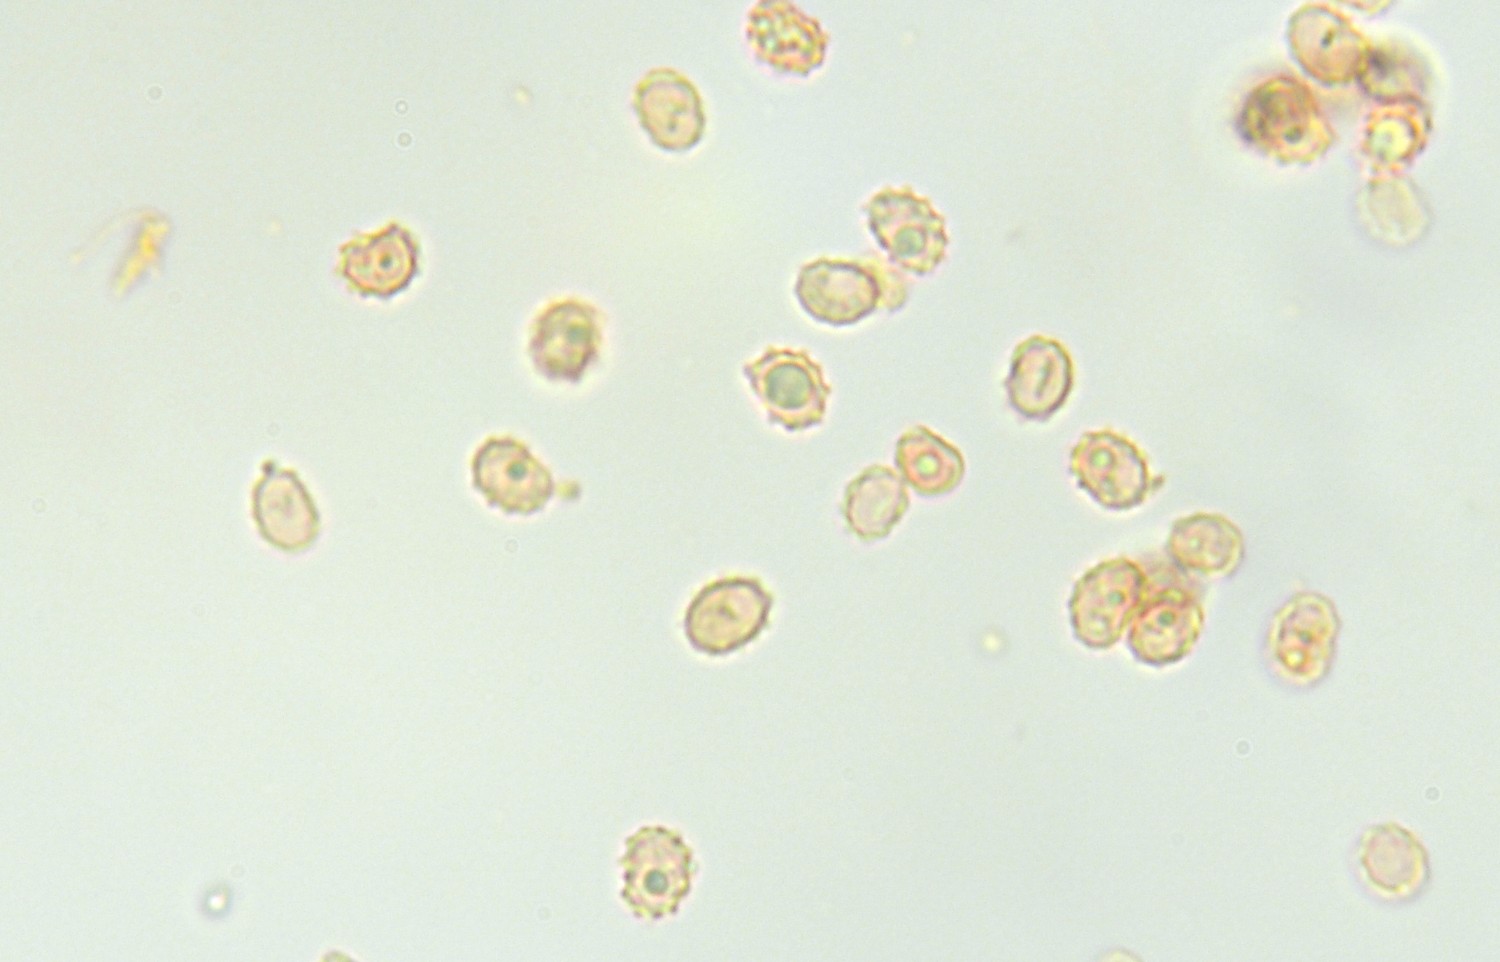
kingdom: Fungi
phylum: Basidiomycota
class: Agaricomycetes
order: Russulales
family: Xenasmataceae
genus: Xenasmatella
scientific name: Xenasmatella vaga
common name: svovl-strenghinde
